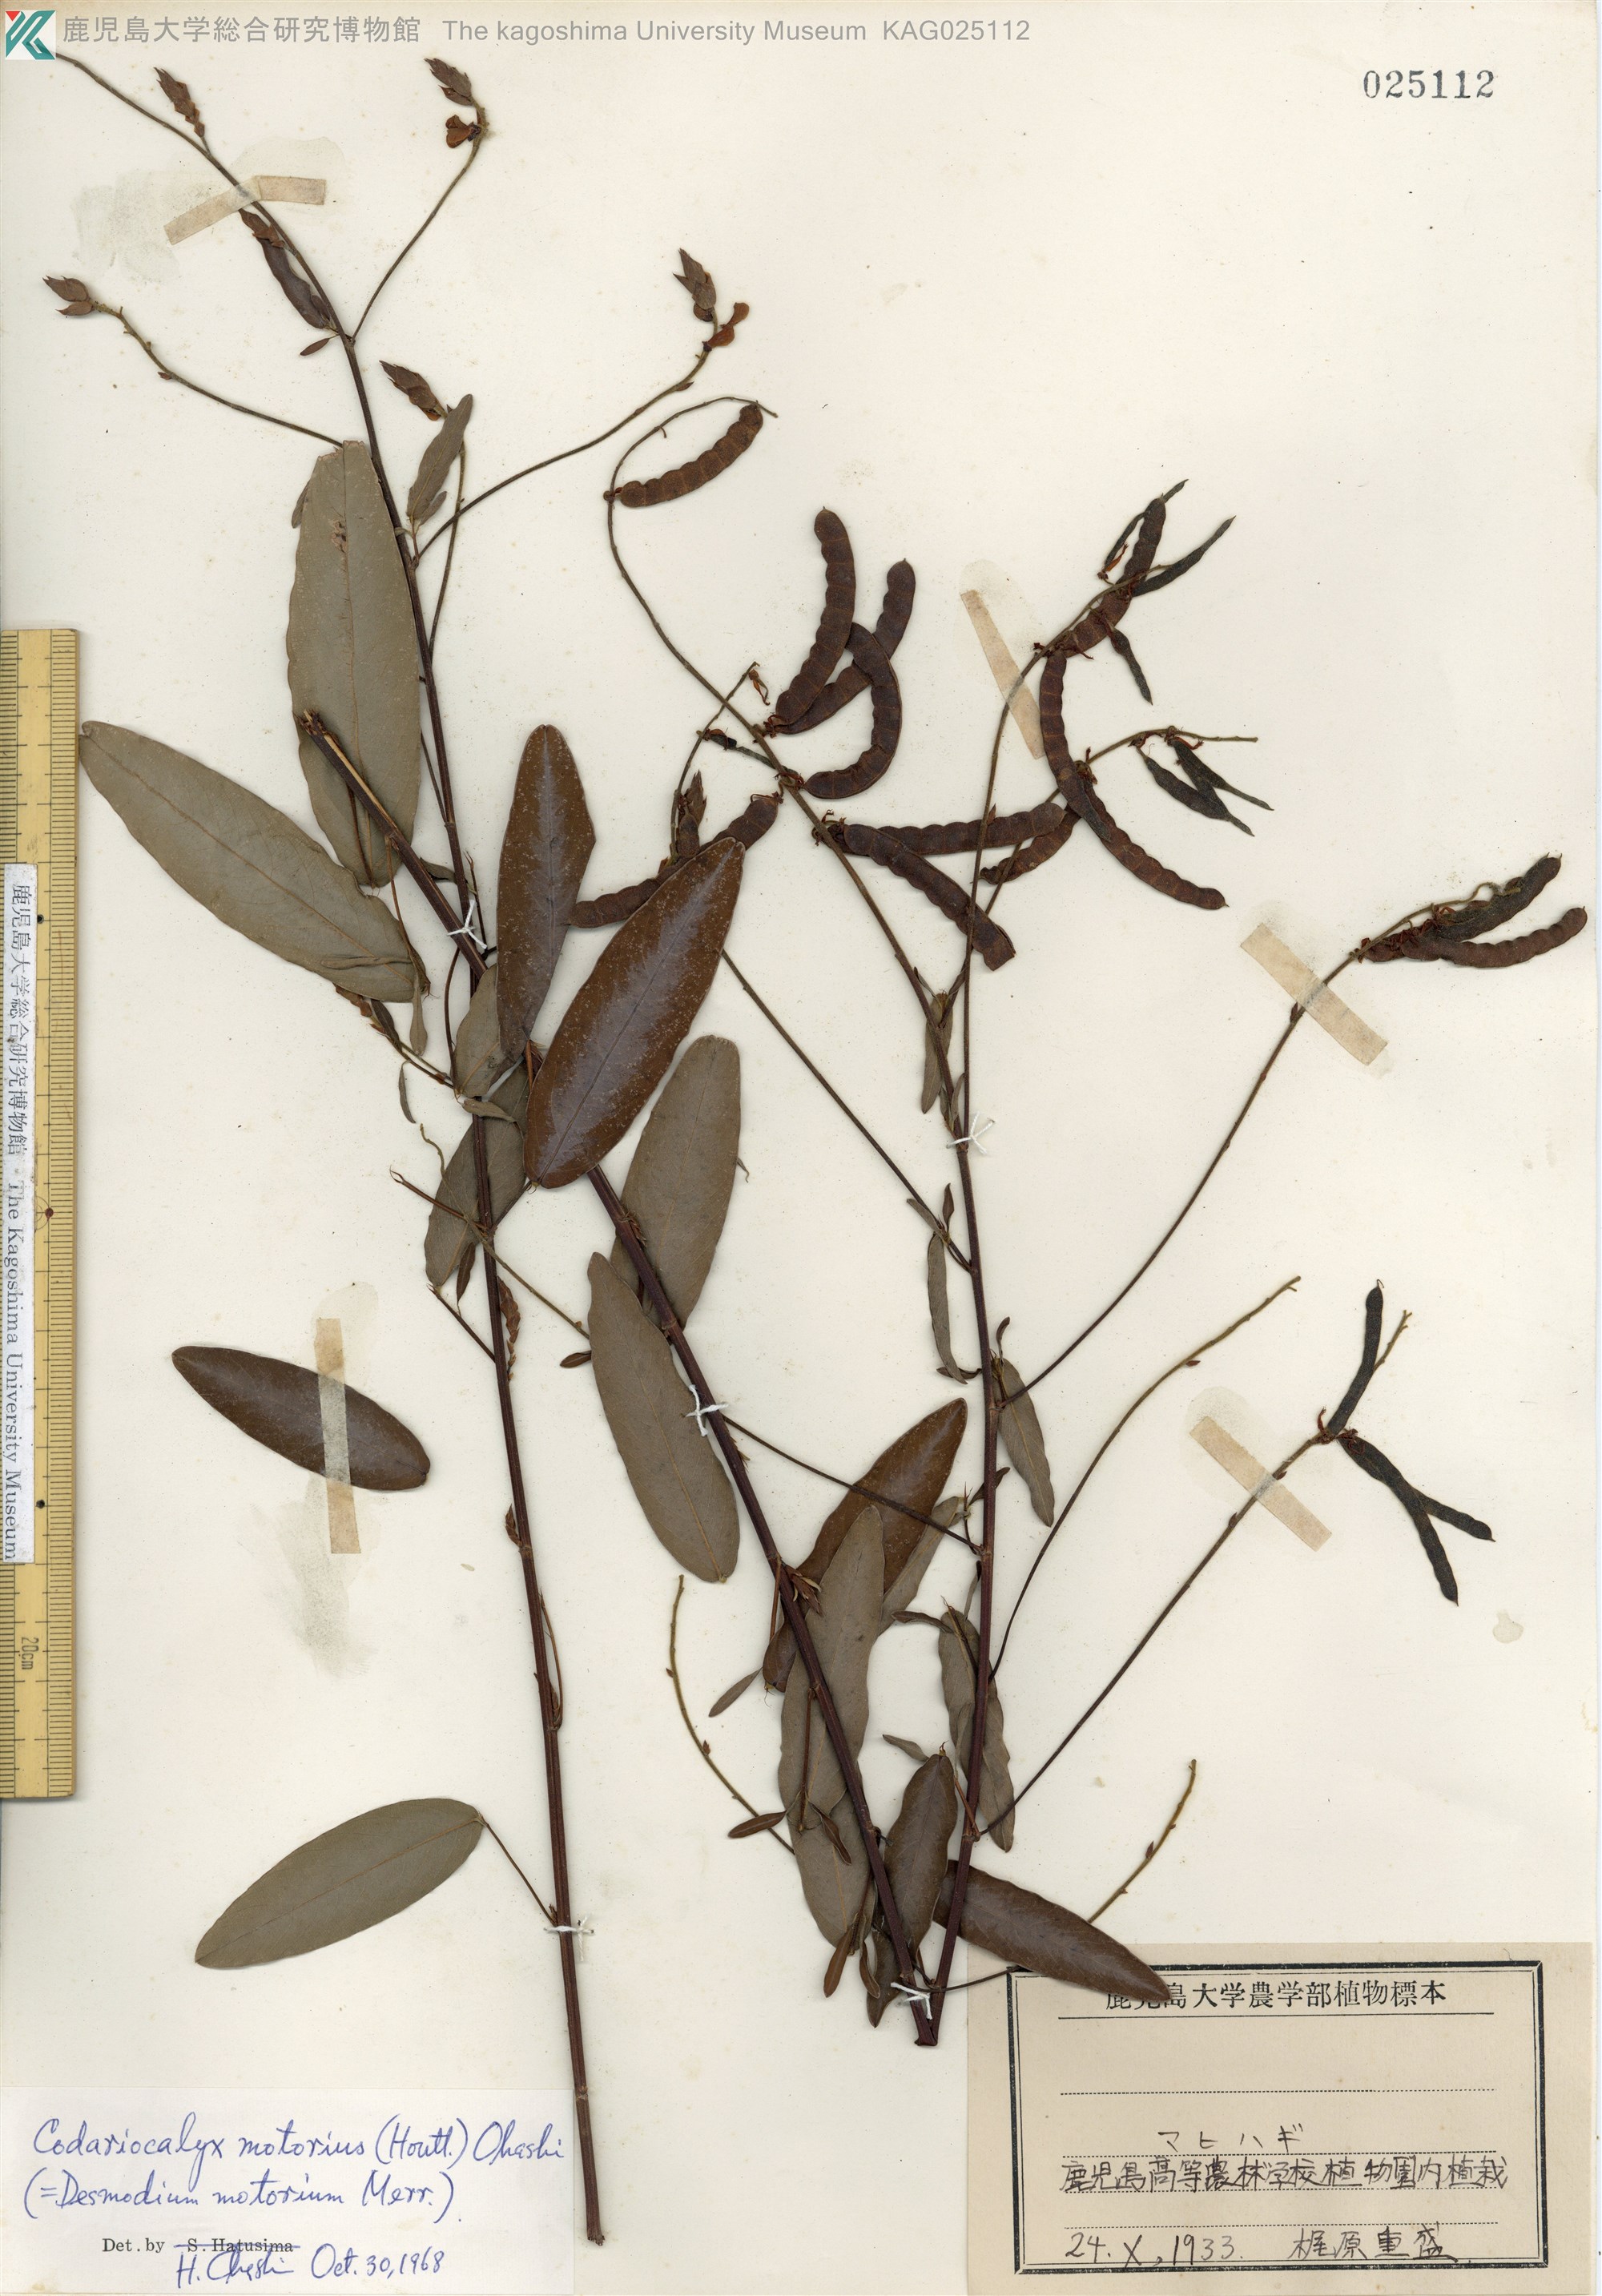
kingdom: Plantae
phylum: Tracheophyta
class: Magnoliopsida
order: Fabales
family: Fabaceae
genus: Codariocalyx
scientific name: Codariocalyx motorius
